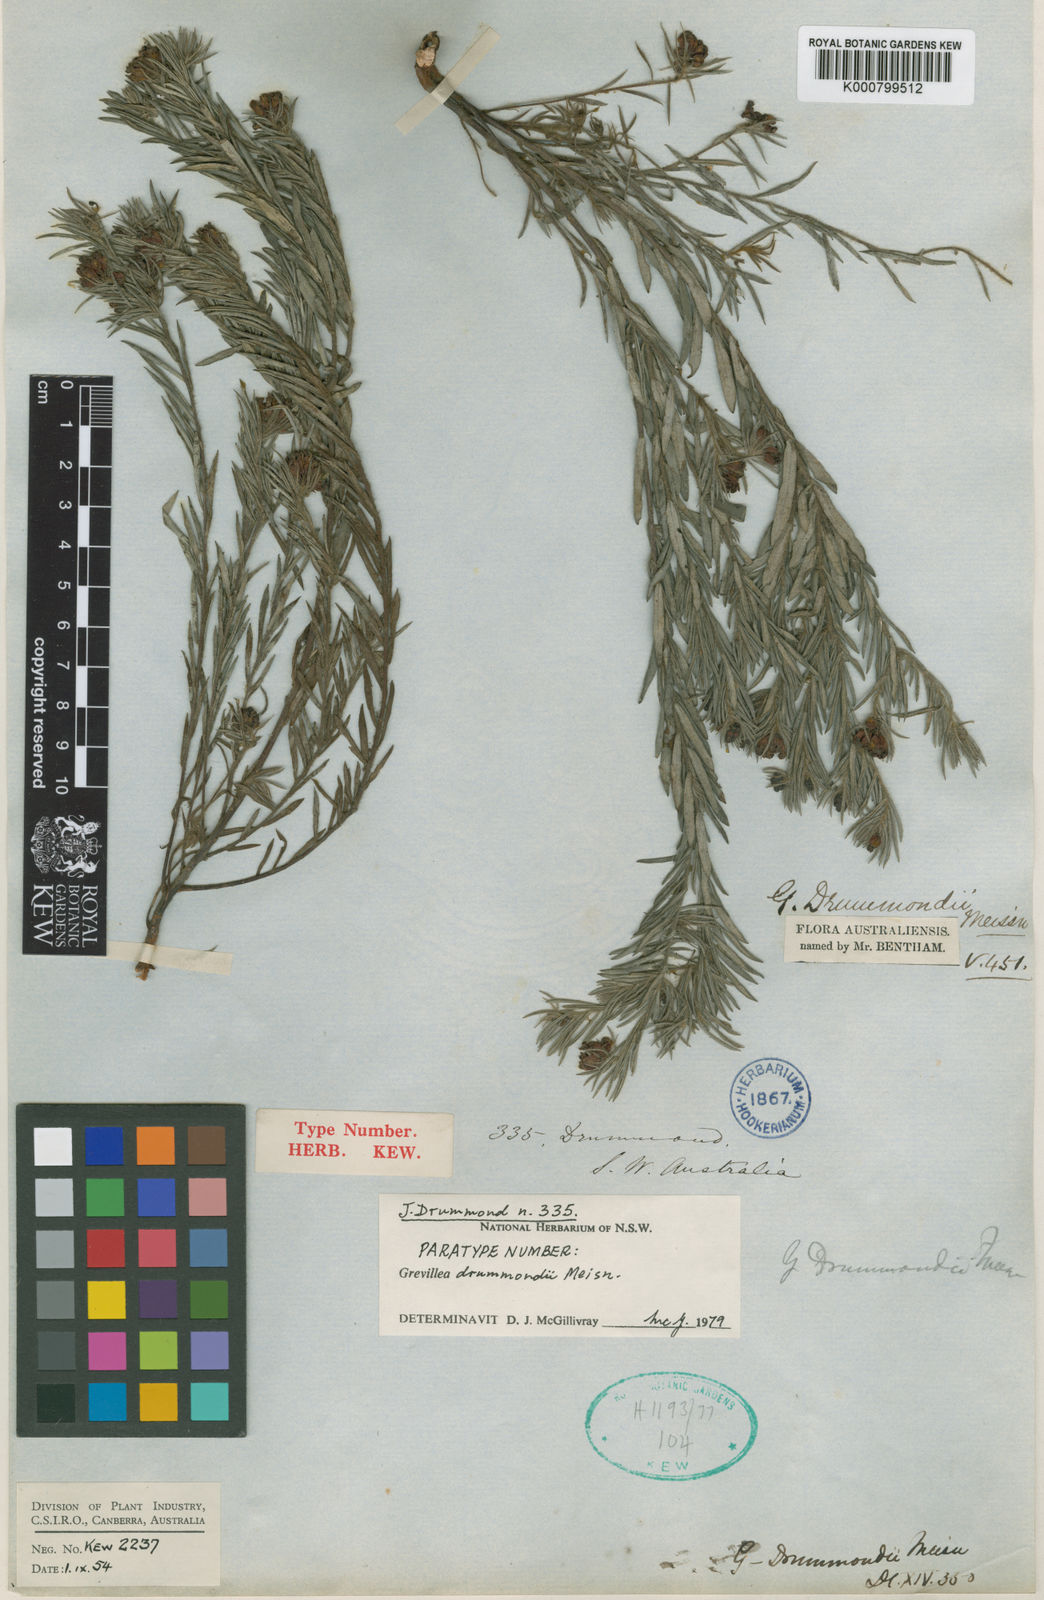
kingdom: Plantae
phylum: Tracheophyta
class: Magnoliopsida
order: Proteales
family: Proteaceae
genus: Grevillea
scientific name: Grevillea drummondii
